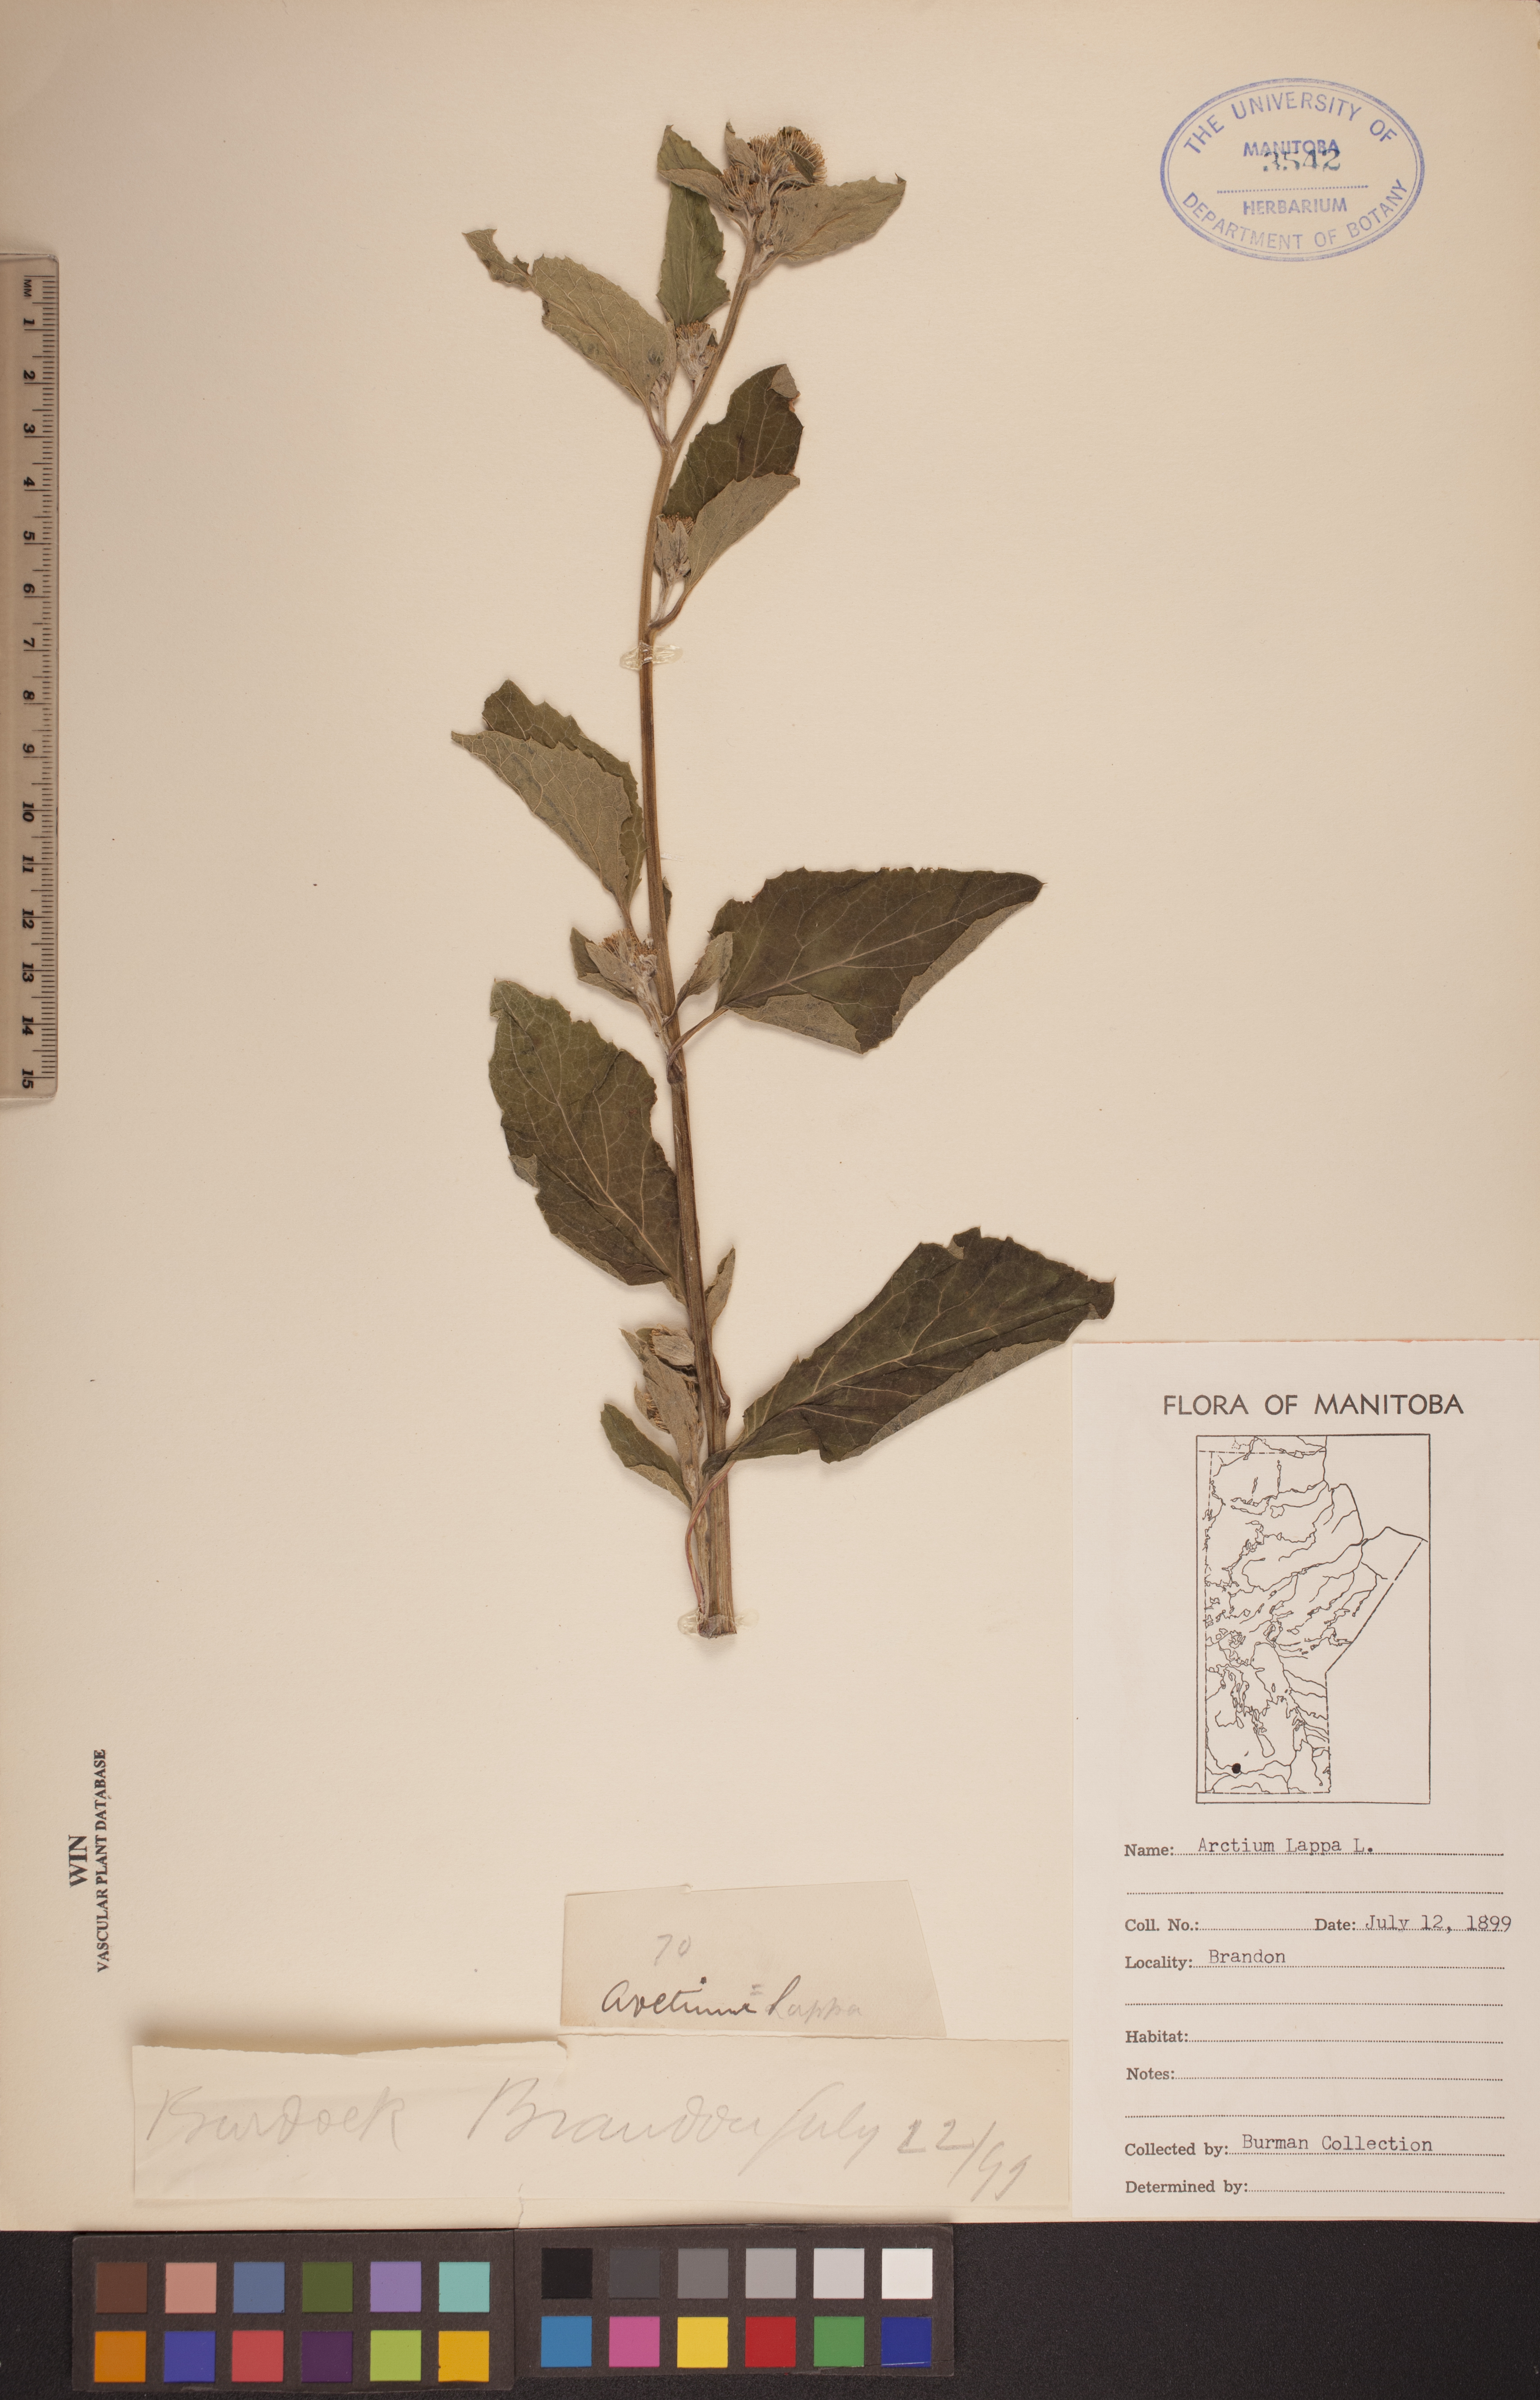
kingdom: Plantae
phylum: Tracheophyta
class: Magnoliopsida
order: Asterales
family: Asteraceae
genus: Arctium
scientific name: Arctium lappa
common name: Greater burdock
